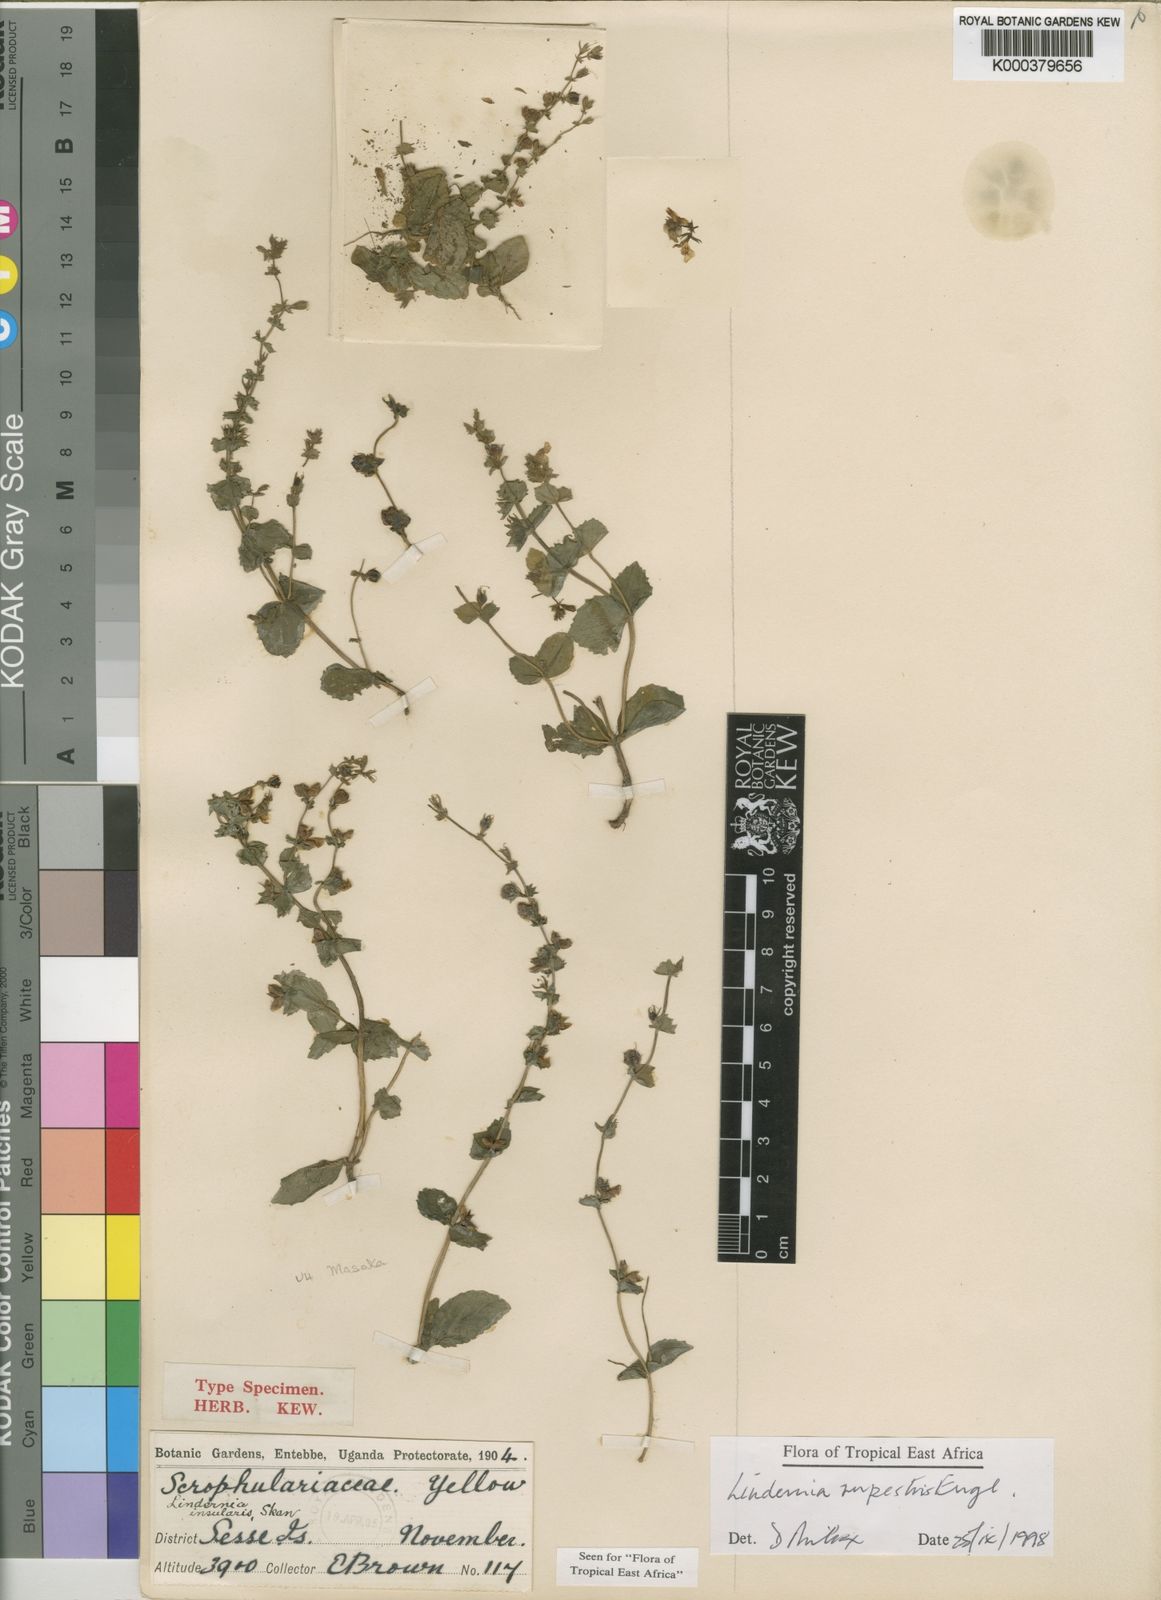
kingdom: Plantae
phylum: Tracheophyta
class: Magnoliopsida
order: Lamiales
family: Linderniaceae
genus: Crepidorhopalon
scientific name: Crepidorhopalon rupestris
